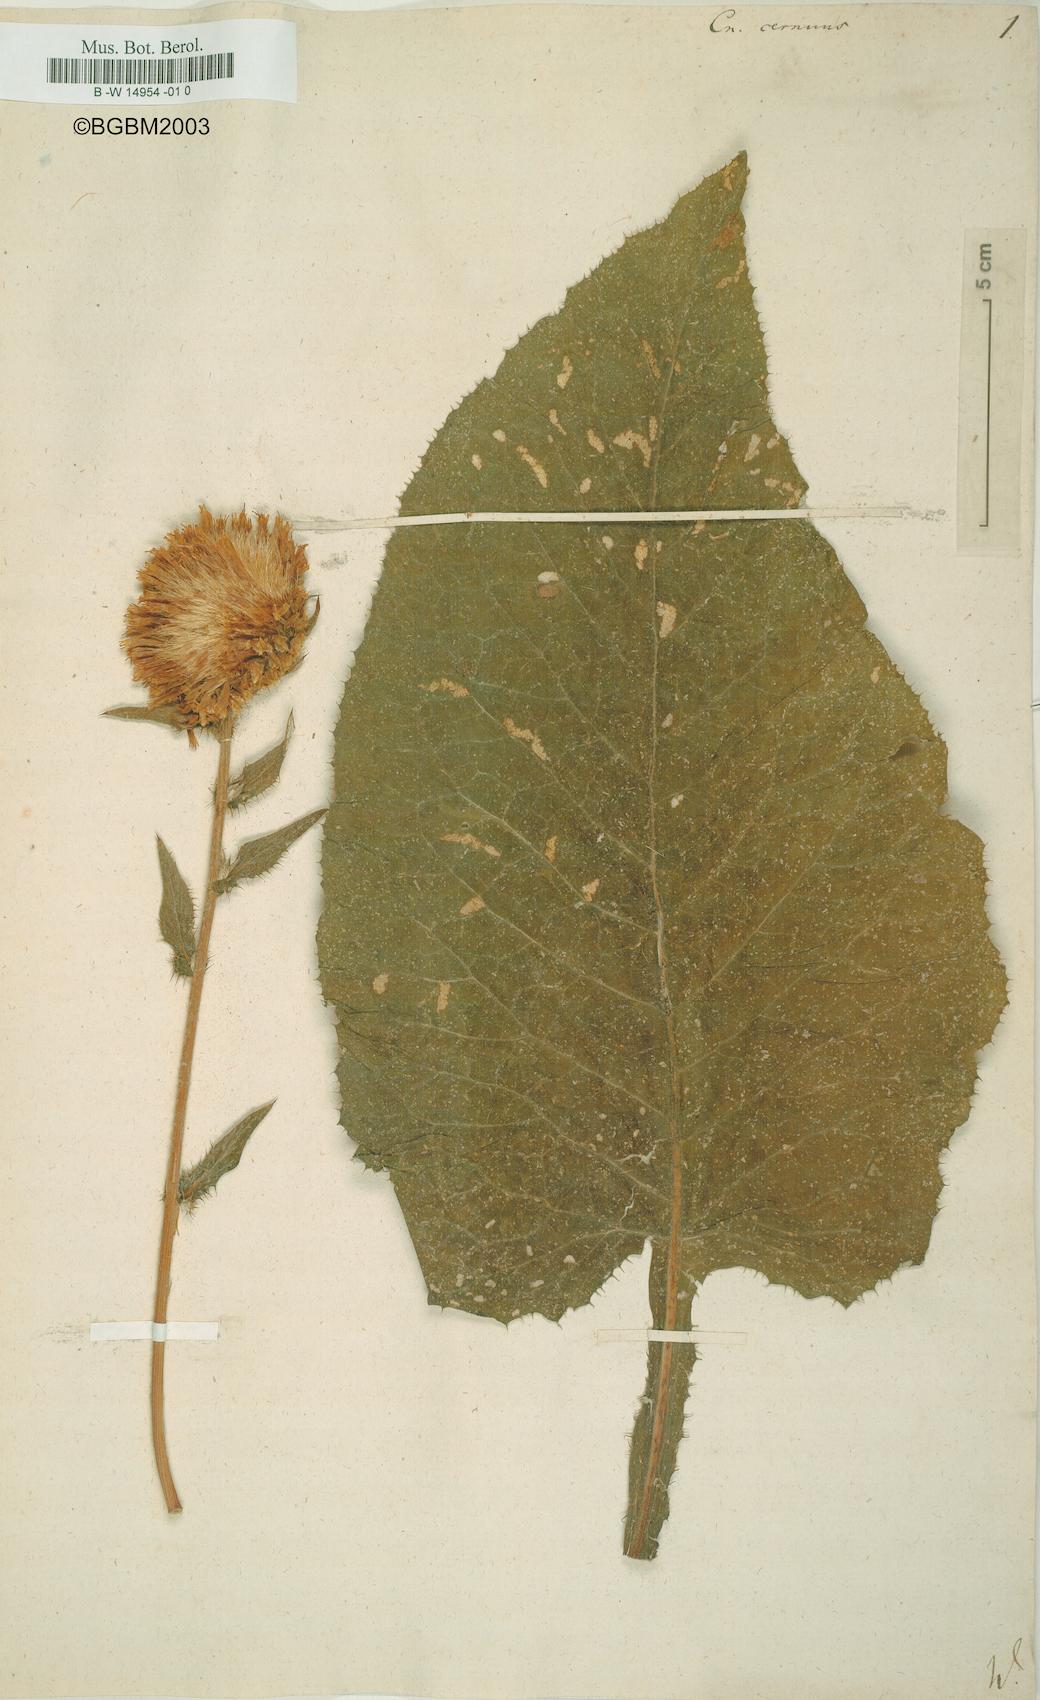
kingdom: Plantae
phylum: Tracheophyta
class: Magnoliopsida
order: Asterales
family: Asteraceae
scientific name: Asteraceae
